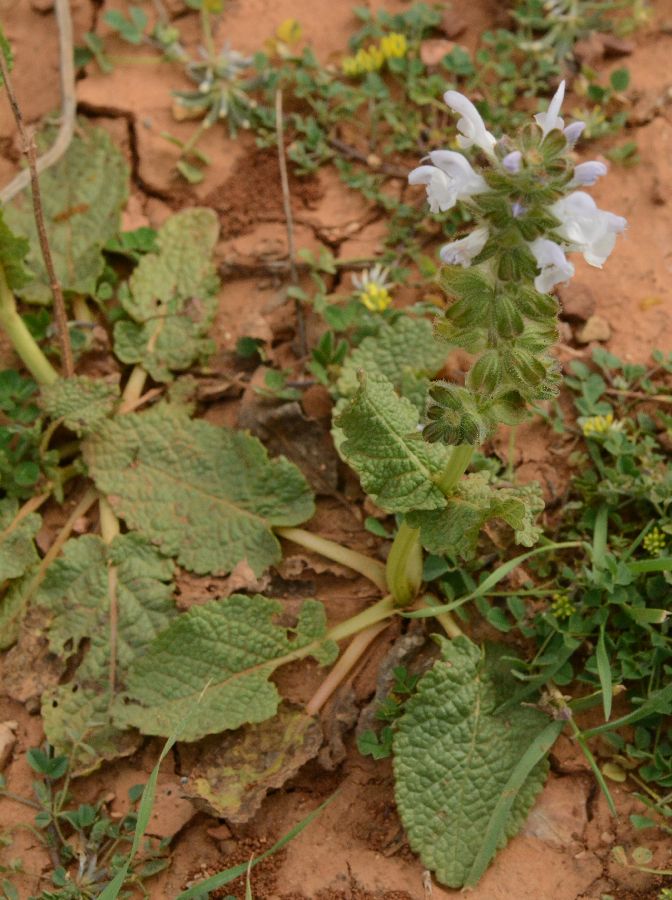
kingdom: Plantae
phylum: Tracheophyta
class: Magnoliopsida
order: Lamiales
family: Lamiaceae
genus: Salvia
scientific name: Salvia verbenaca
